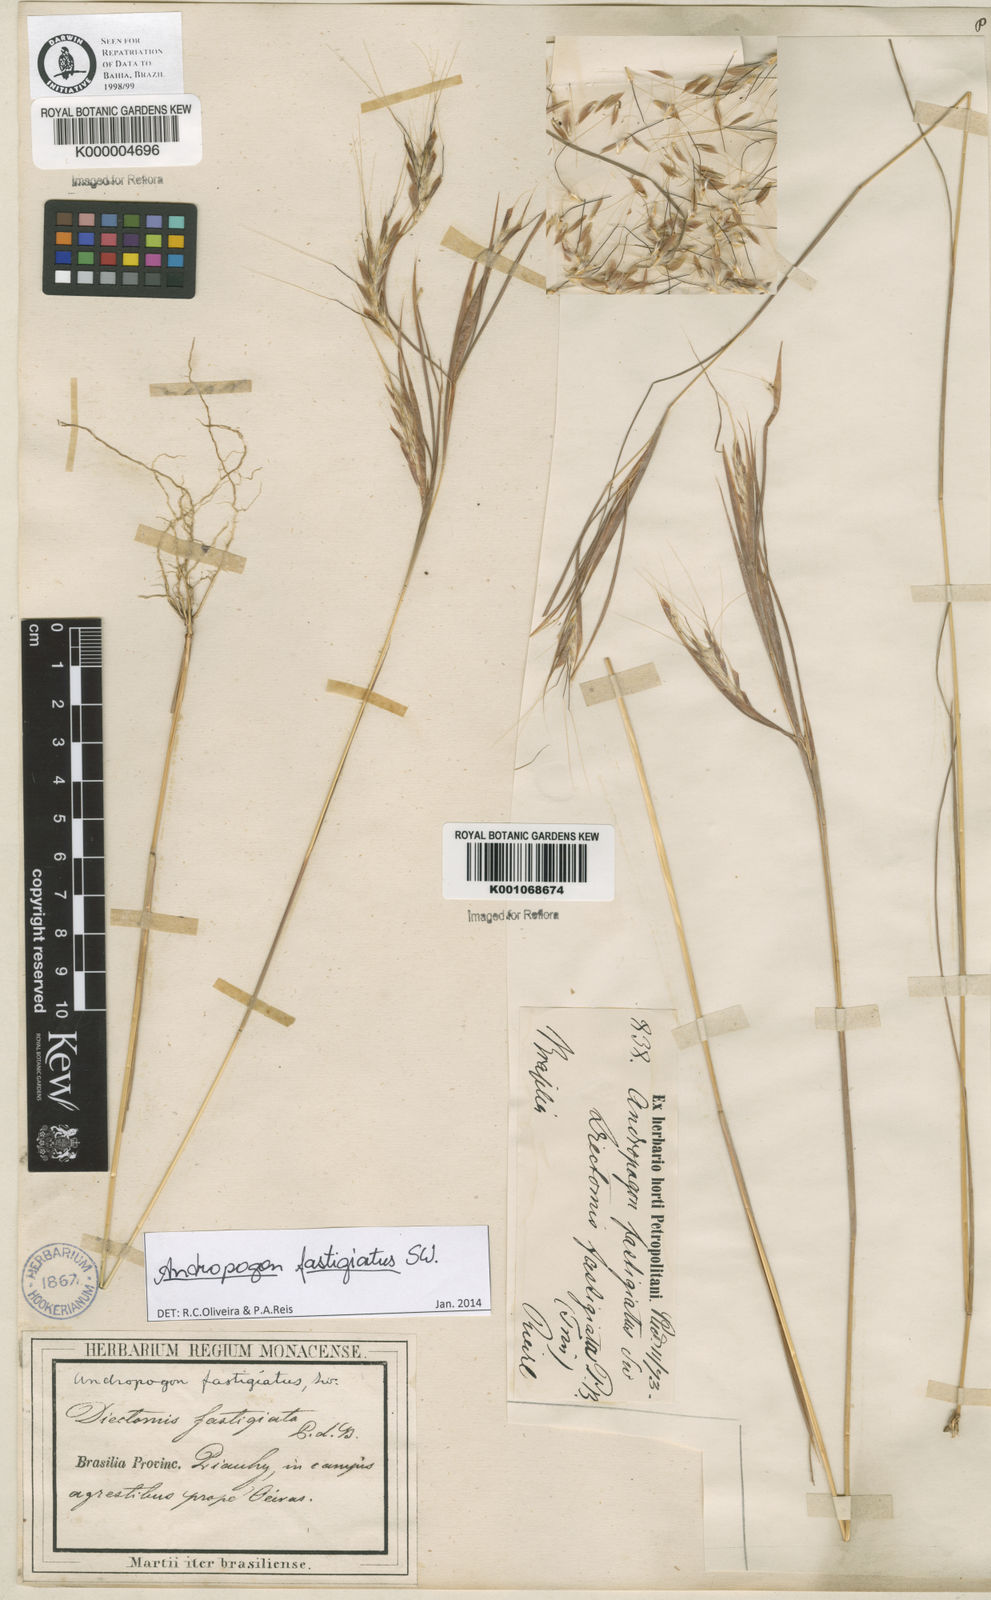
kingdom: Plantae
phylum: Tracheophyta
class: Liliopsida
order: Poales
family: Poaceae
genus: Diectomis
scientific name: Diectomis fastigiata
